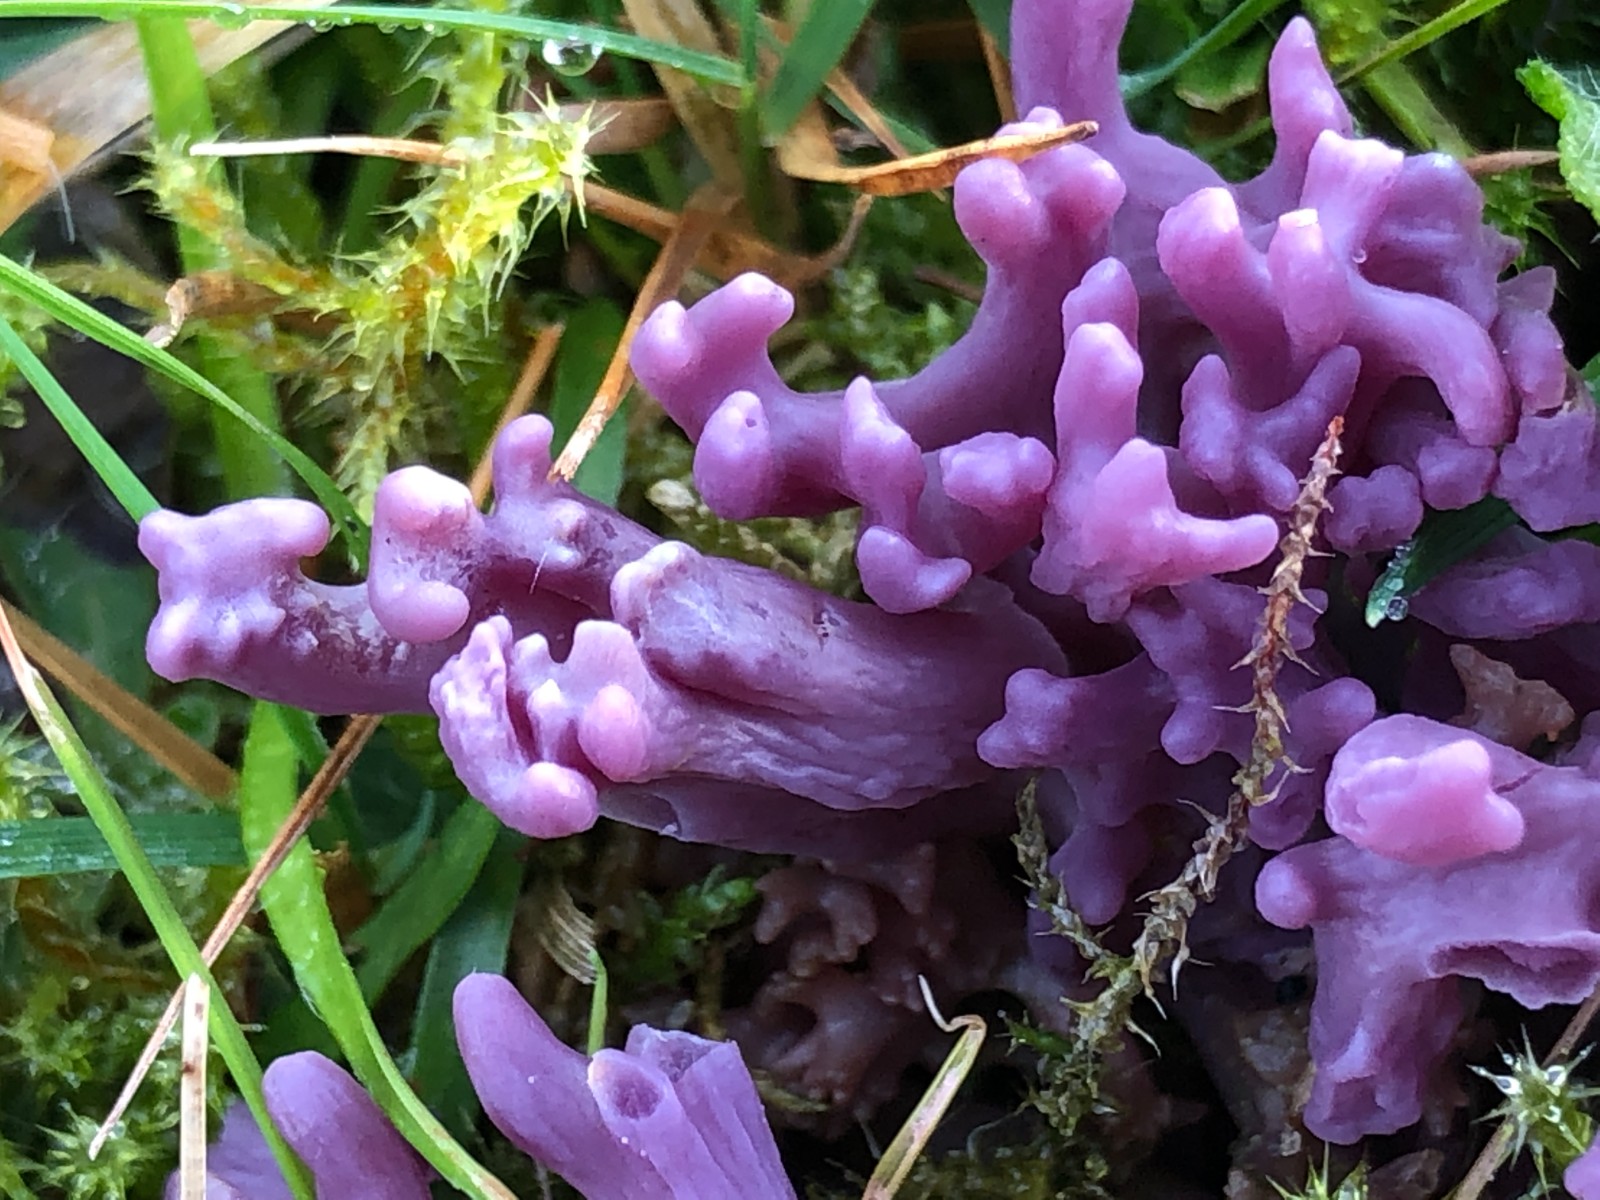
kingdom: Fungi
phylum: Basidiomycota
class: Agaricomycetes
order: Agaricales
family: Clavariaceae
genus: Clavaria
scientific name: Clavaria zollingeri
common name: purpur-køllesvamp
